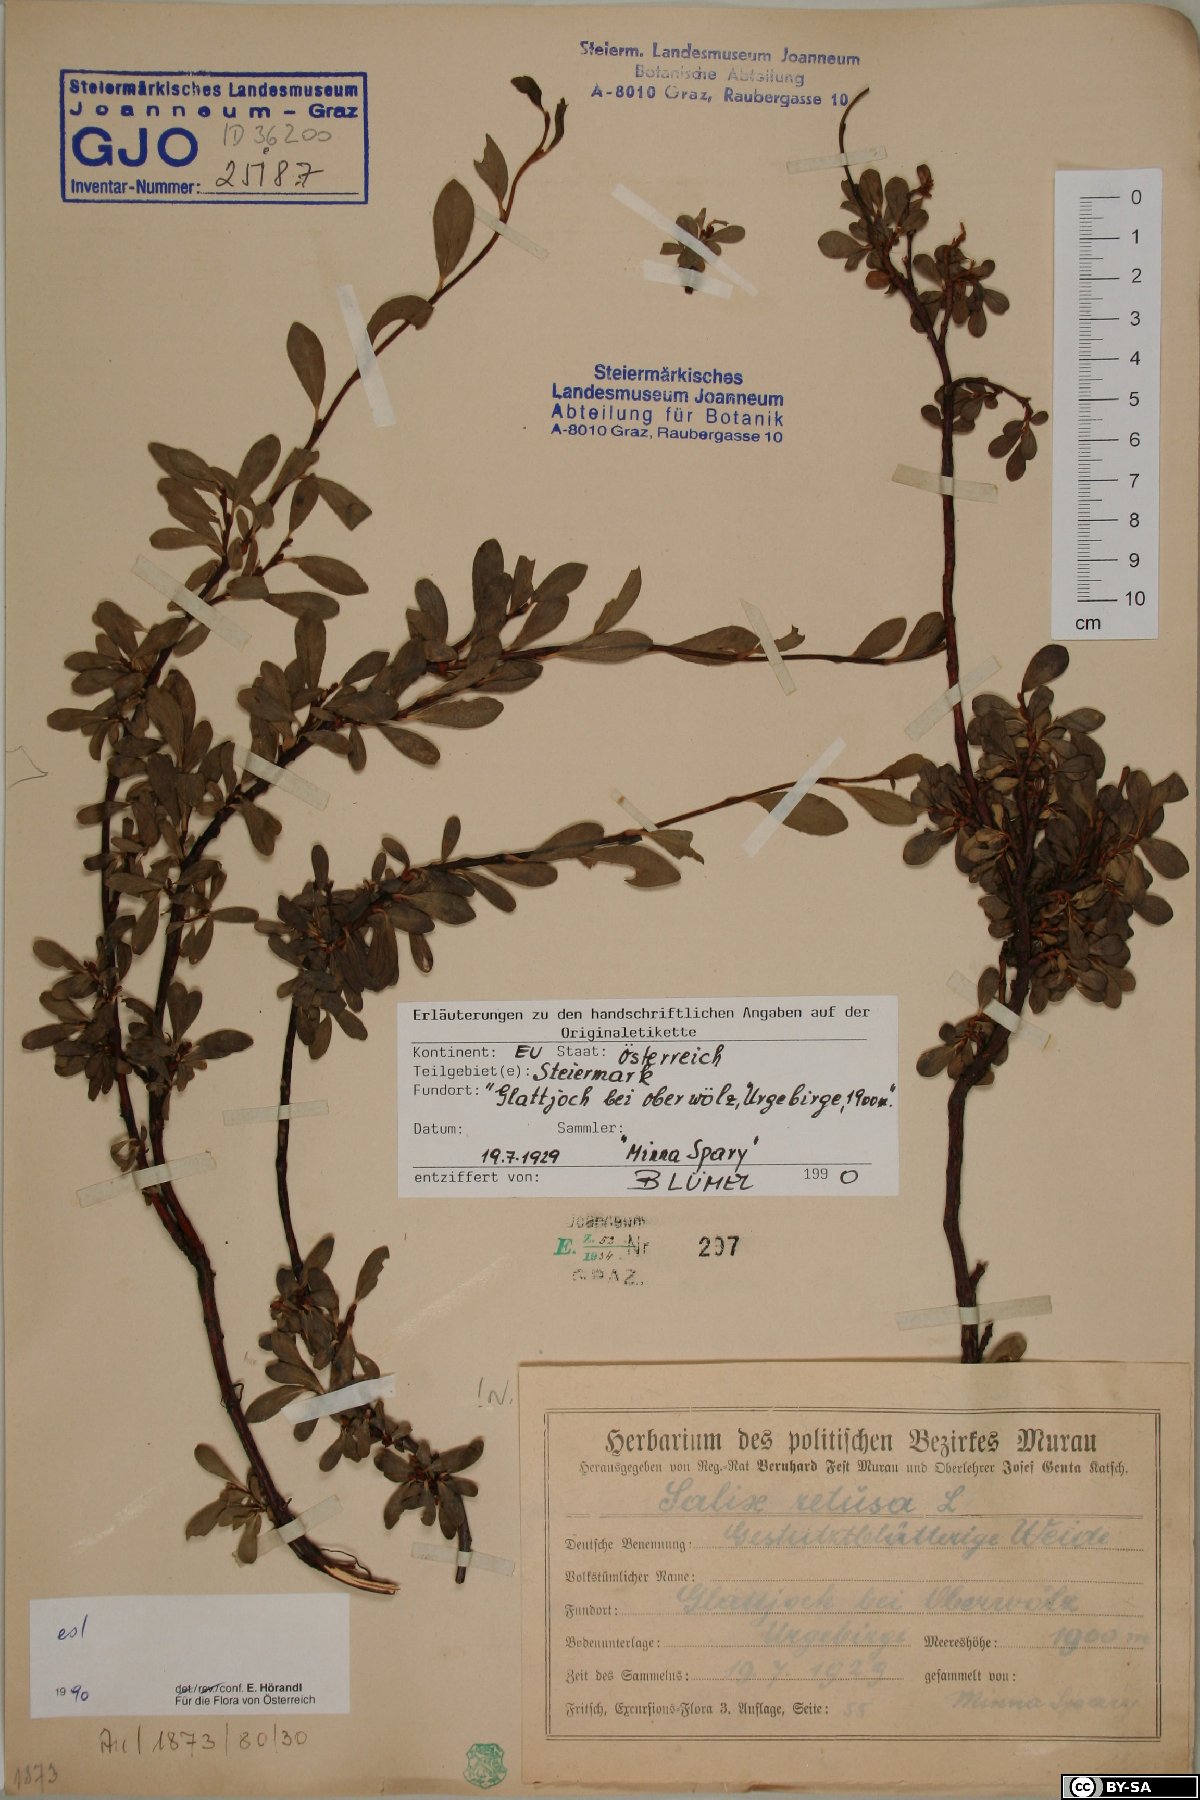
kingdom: Plantae
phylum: Tracheophyta
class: Magnoliopsida
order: Malpighiales
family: Salicaceae
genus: Salix
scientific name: Salix retusa
